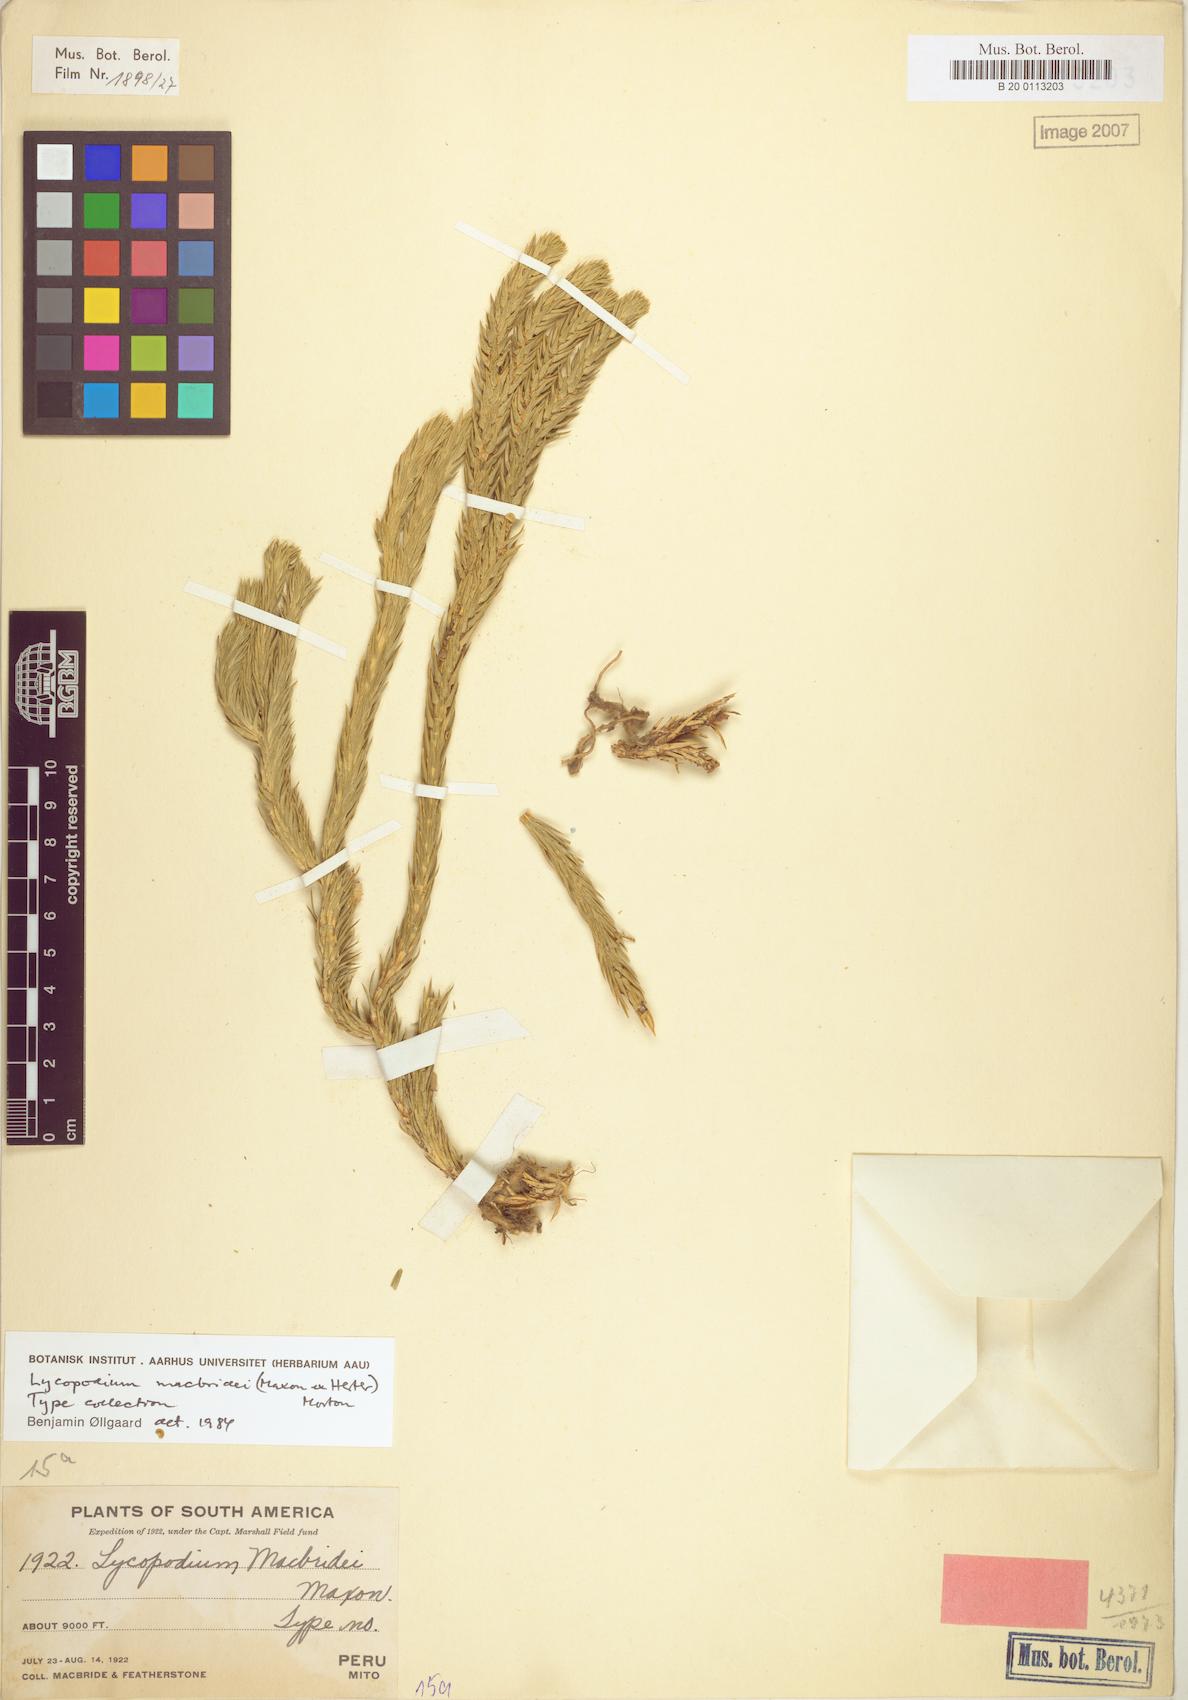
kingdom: Plantae
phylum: Tracheophyta
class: Lycopodiopsida
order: Lycopodiales
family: Lycopodiaceae
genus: Phlegmariurus
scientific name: Phlegmariurus macbridei
